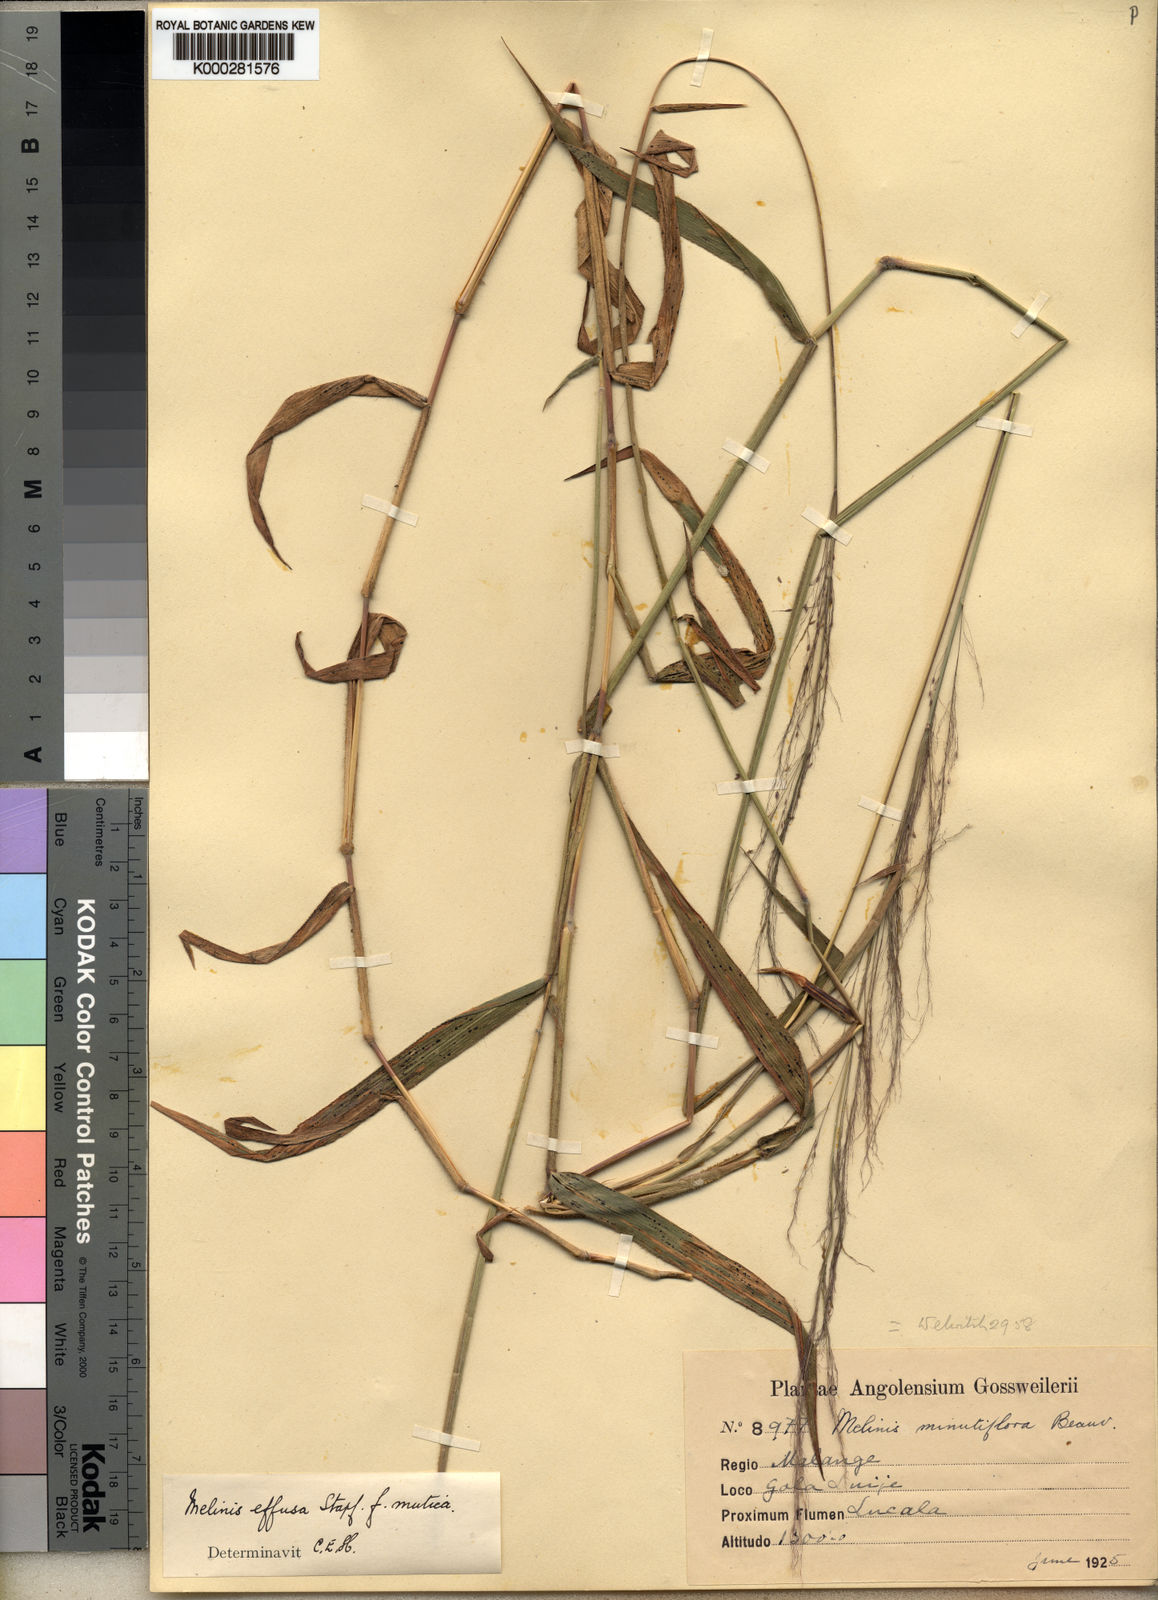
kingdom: Plantae
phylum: Tracheophyta
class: Liliopsida
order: Poales
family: Poaceae
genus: Melinis
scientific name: Melinis
